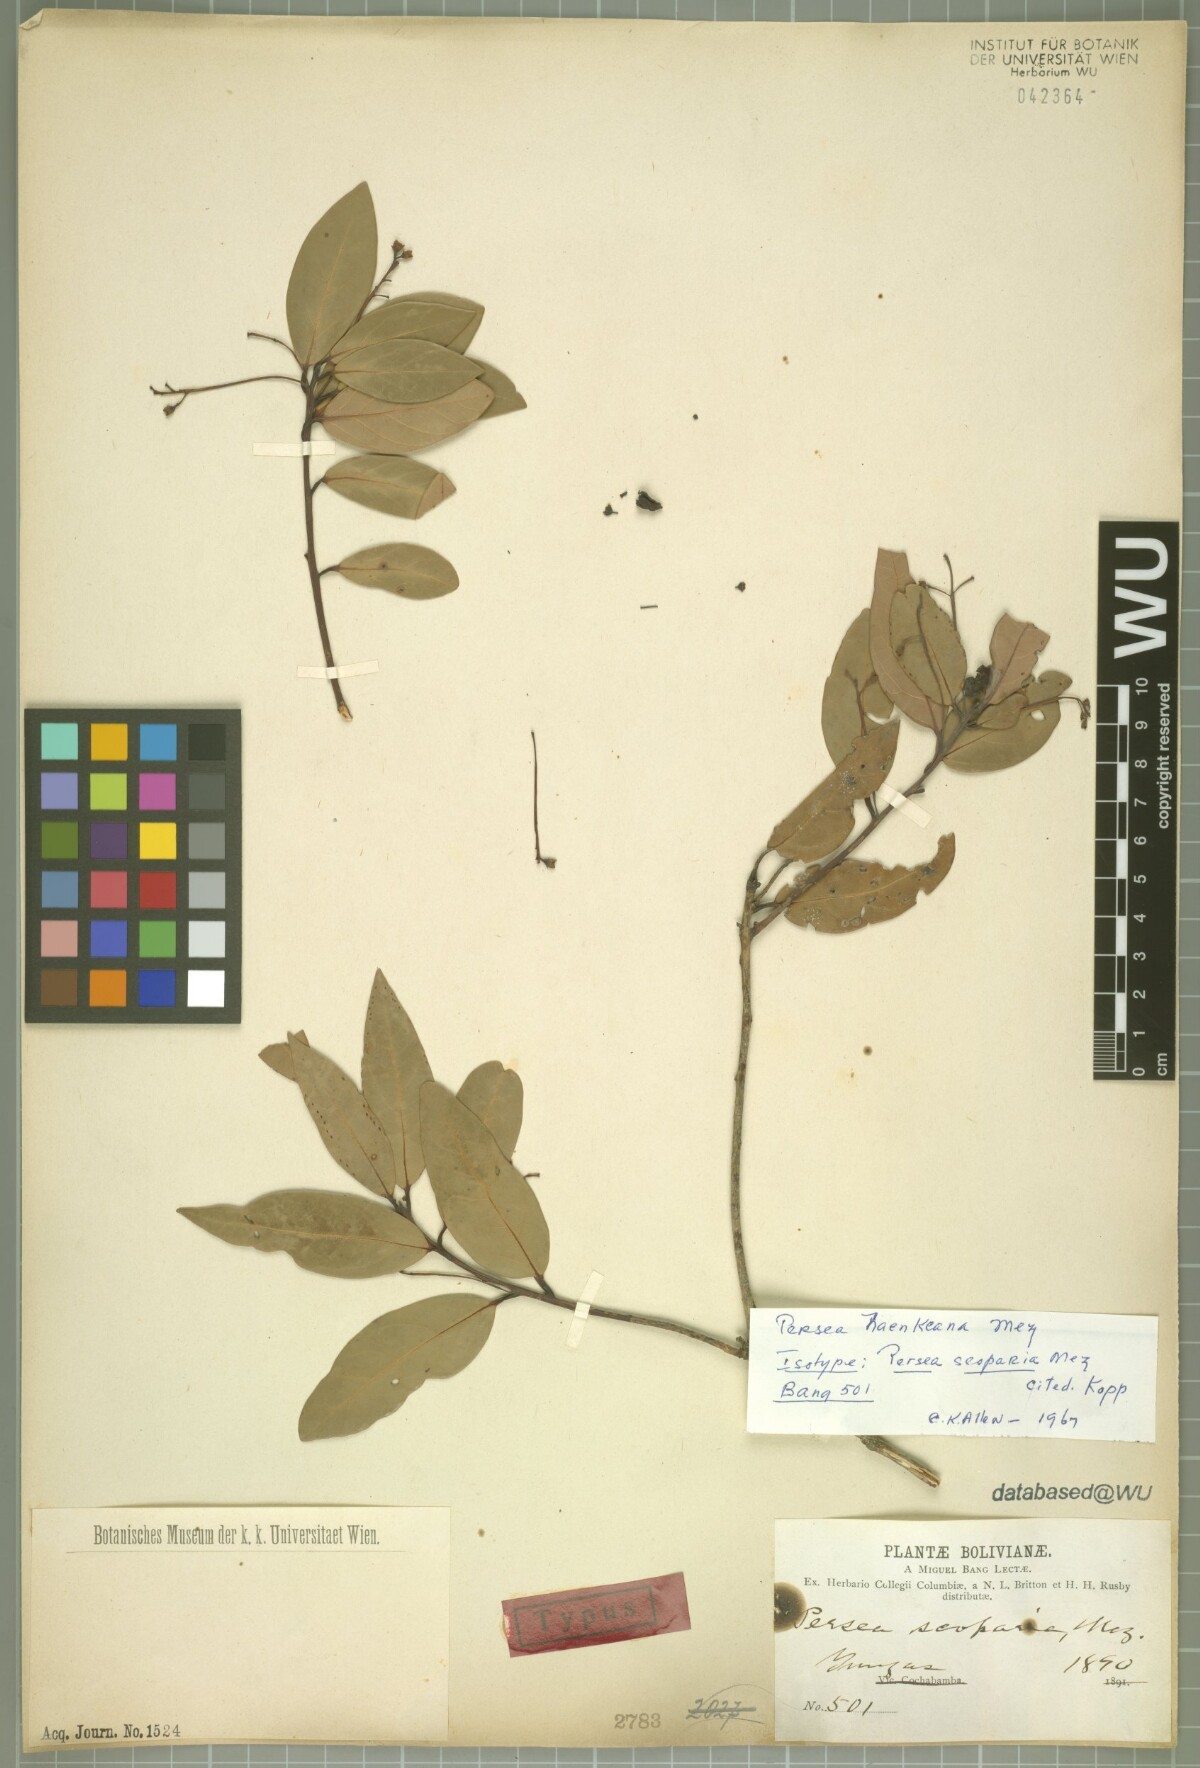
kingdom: Plantae
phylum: Tracheophyta
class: Magnoliopsida
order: Laurales
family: Lauraceae
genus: Persea
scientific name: Persea haenkeana
